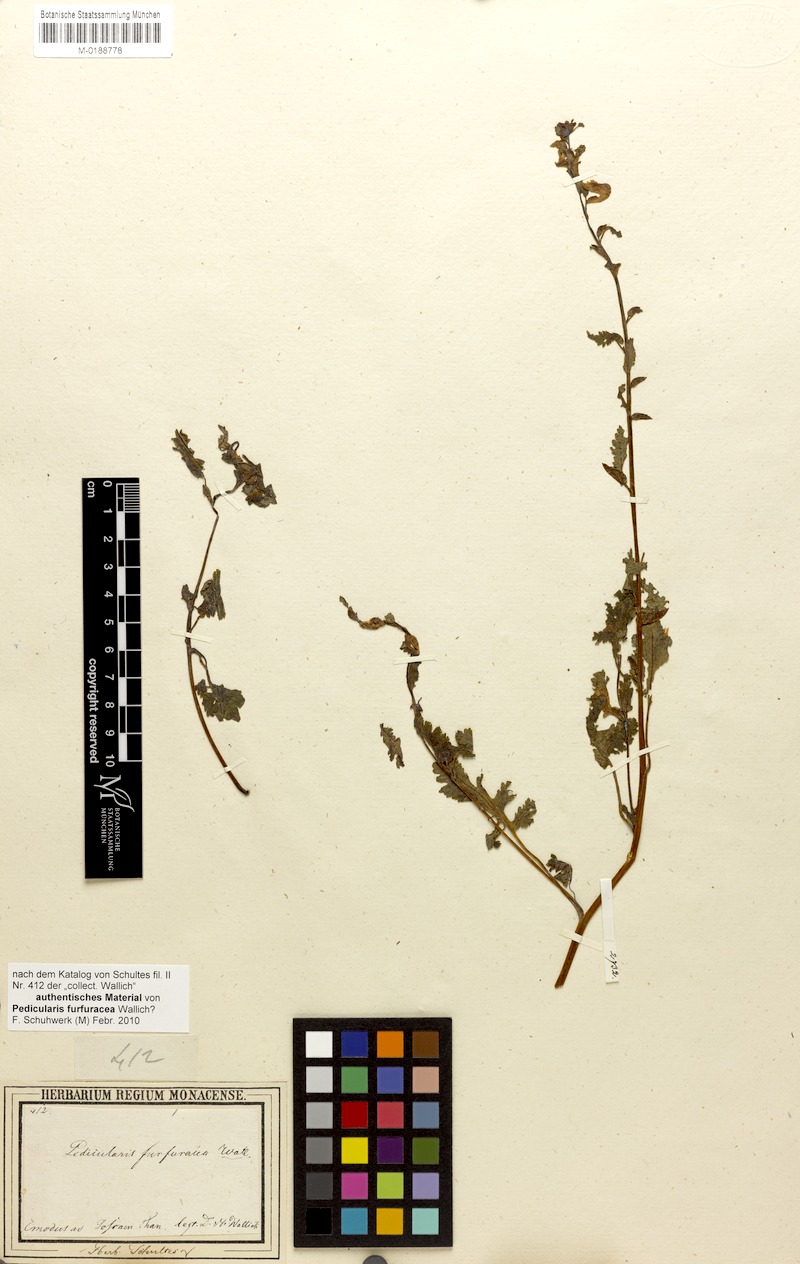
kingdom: Plantae
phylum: Tracheophyta
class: Magnoliopsida
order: Lamiales
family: Orobanchaceae
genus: Pedicularis
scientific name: Pedicularis furfuracea
